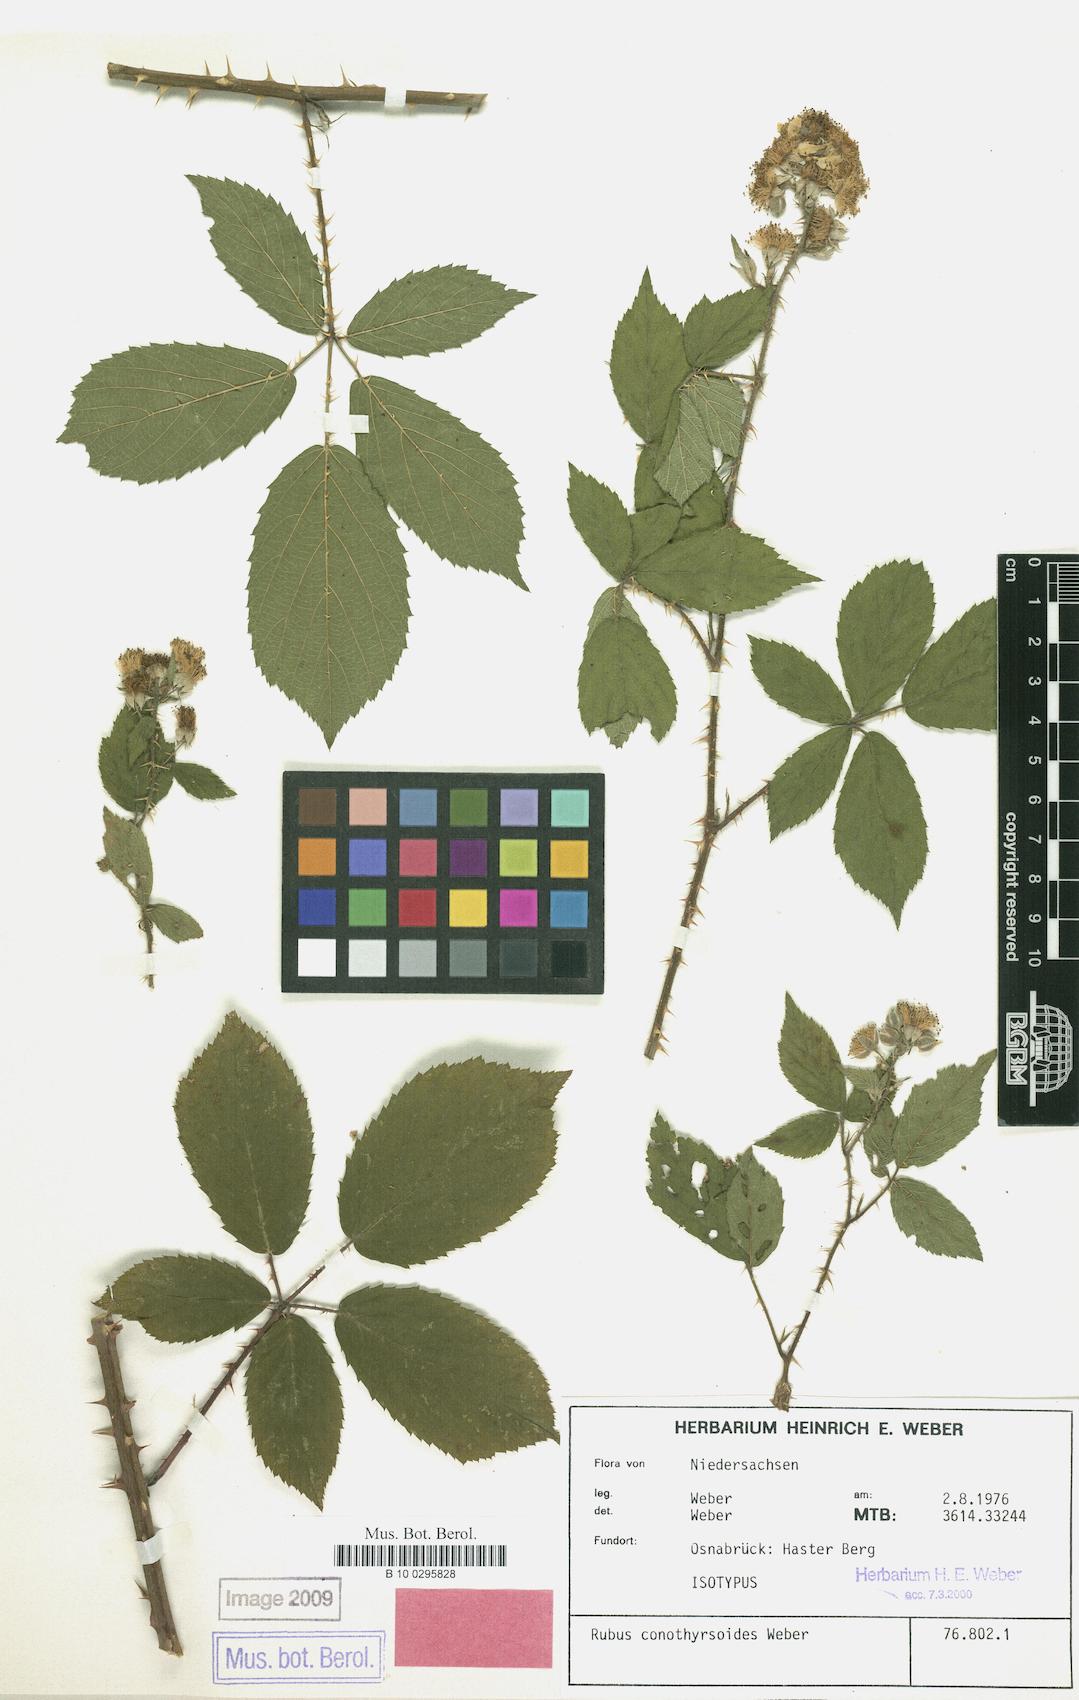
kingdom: Plantae
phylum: Tracheophyta
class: Magnoliopsida
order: Rosales
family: Rosaceae
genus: Rubus
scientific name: Rubus conothyrsoides
